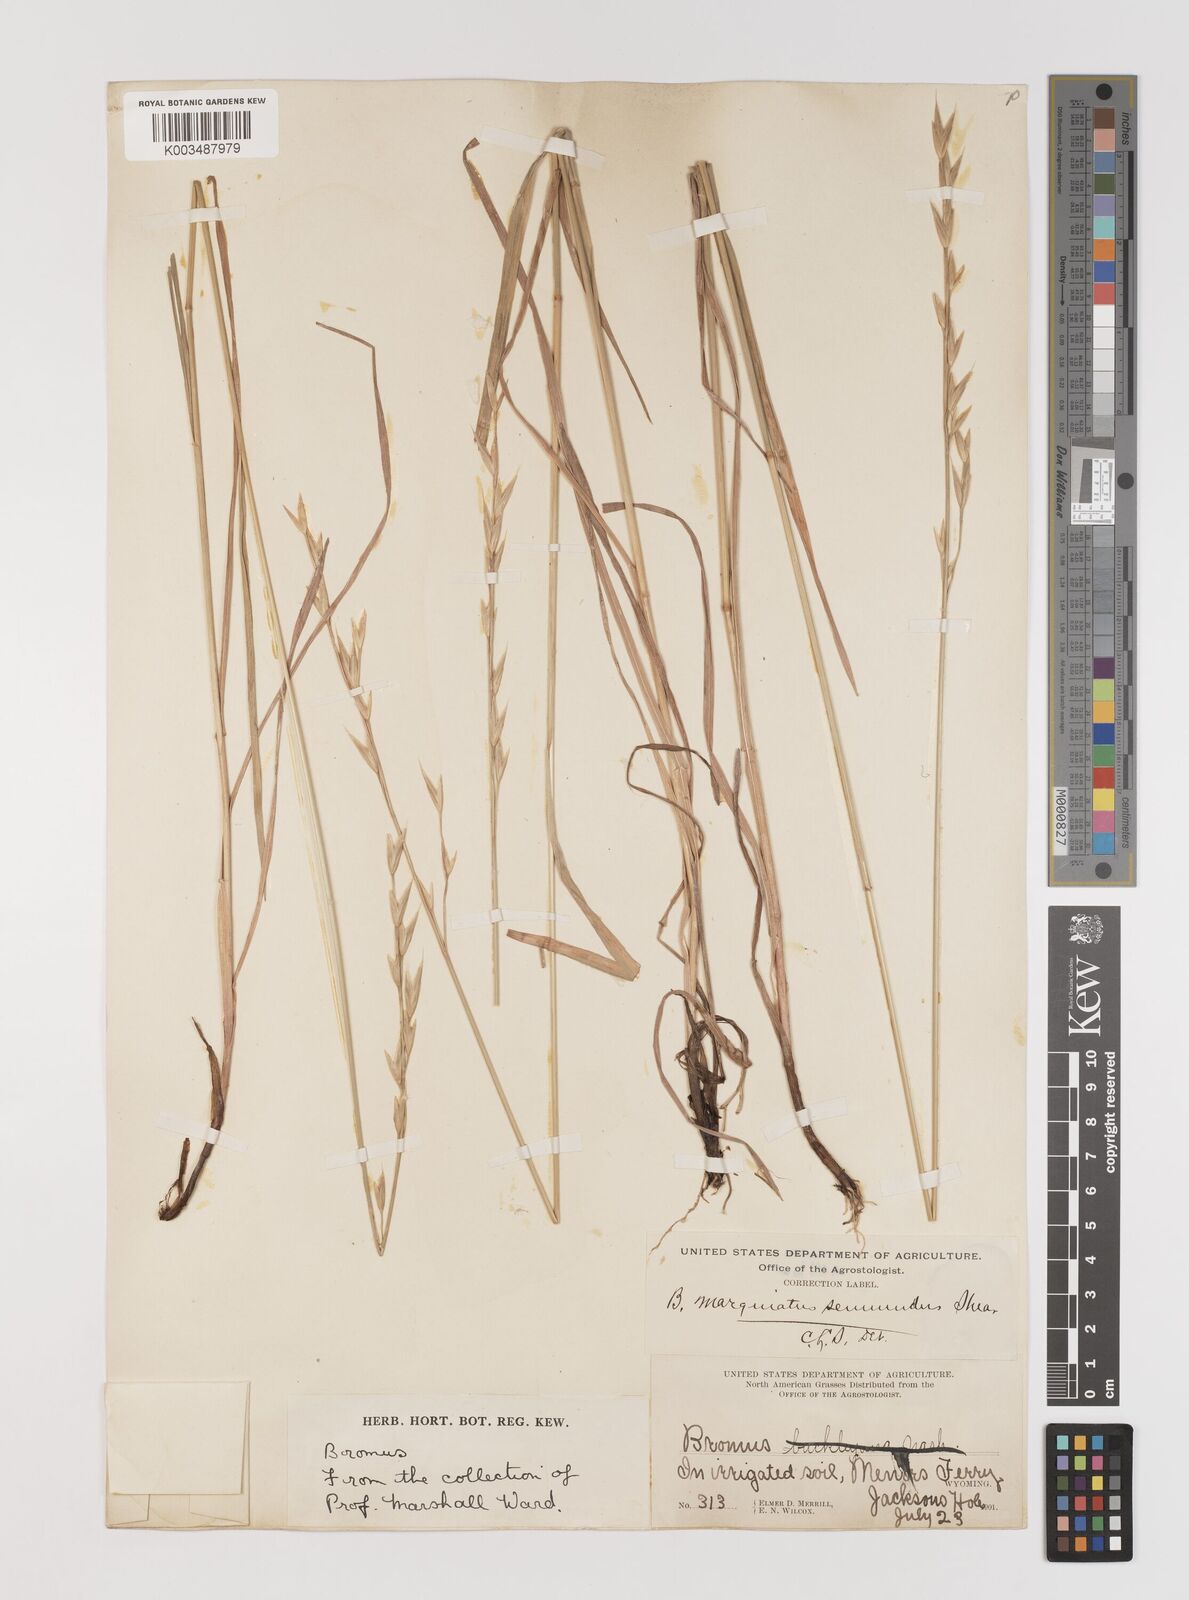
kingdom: Plantae
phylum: Tracheophyta
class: Liliopsida
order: Poales
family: Poaceae
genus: Bromus
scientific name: Bromus marginatus
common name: Western brome
